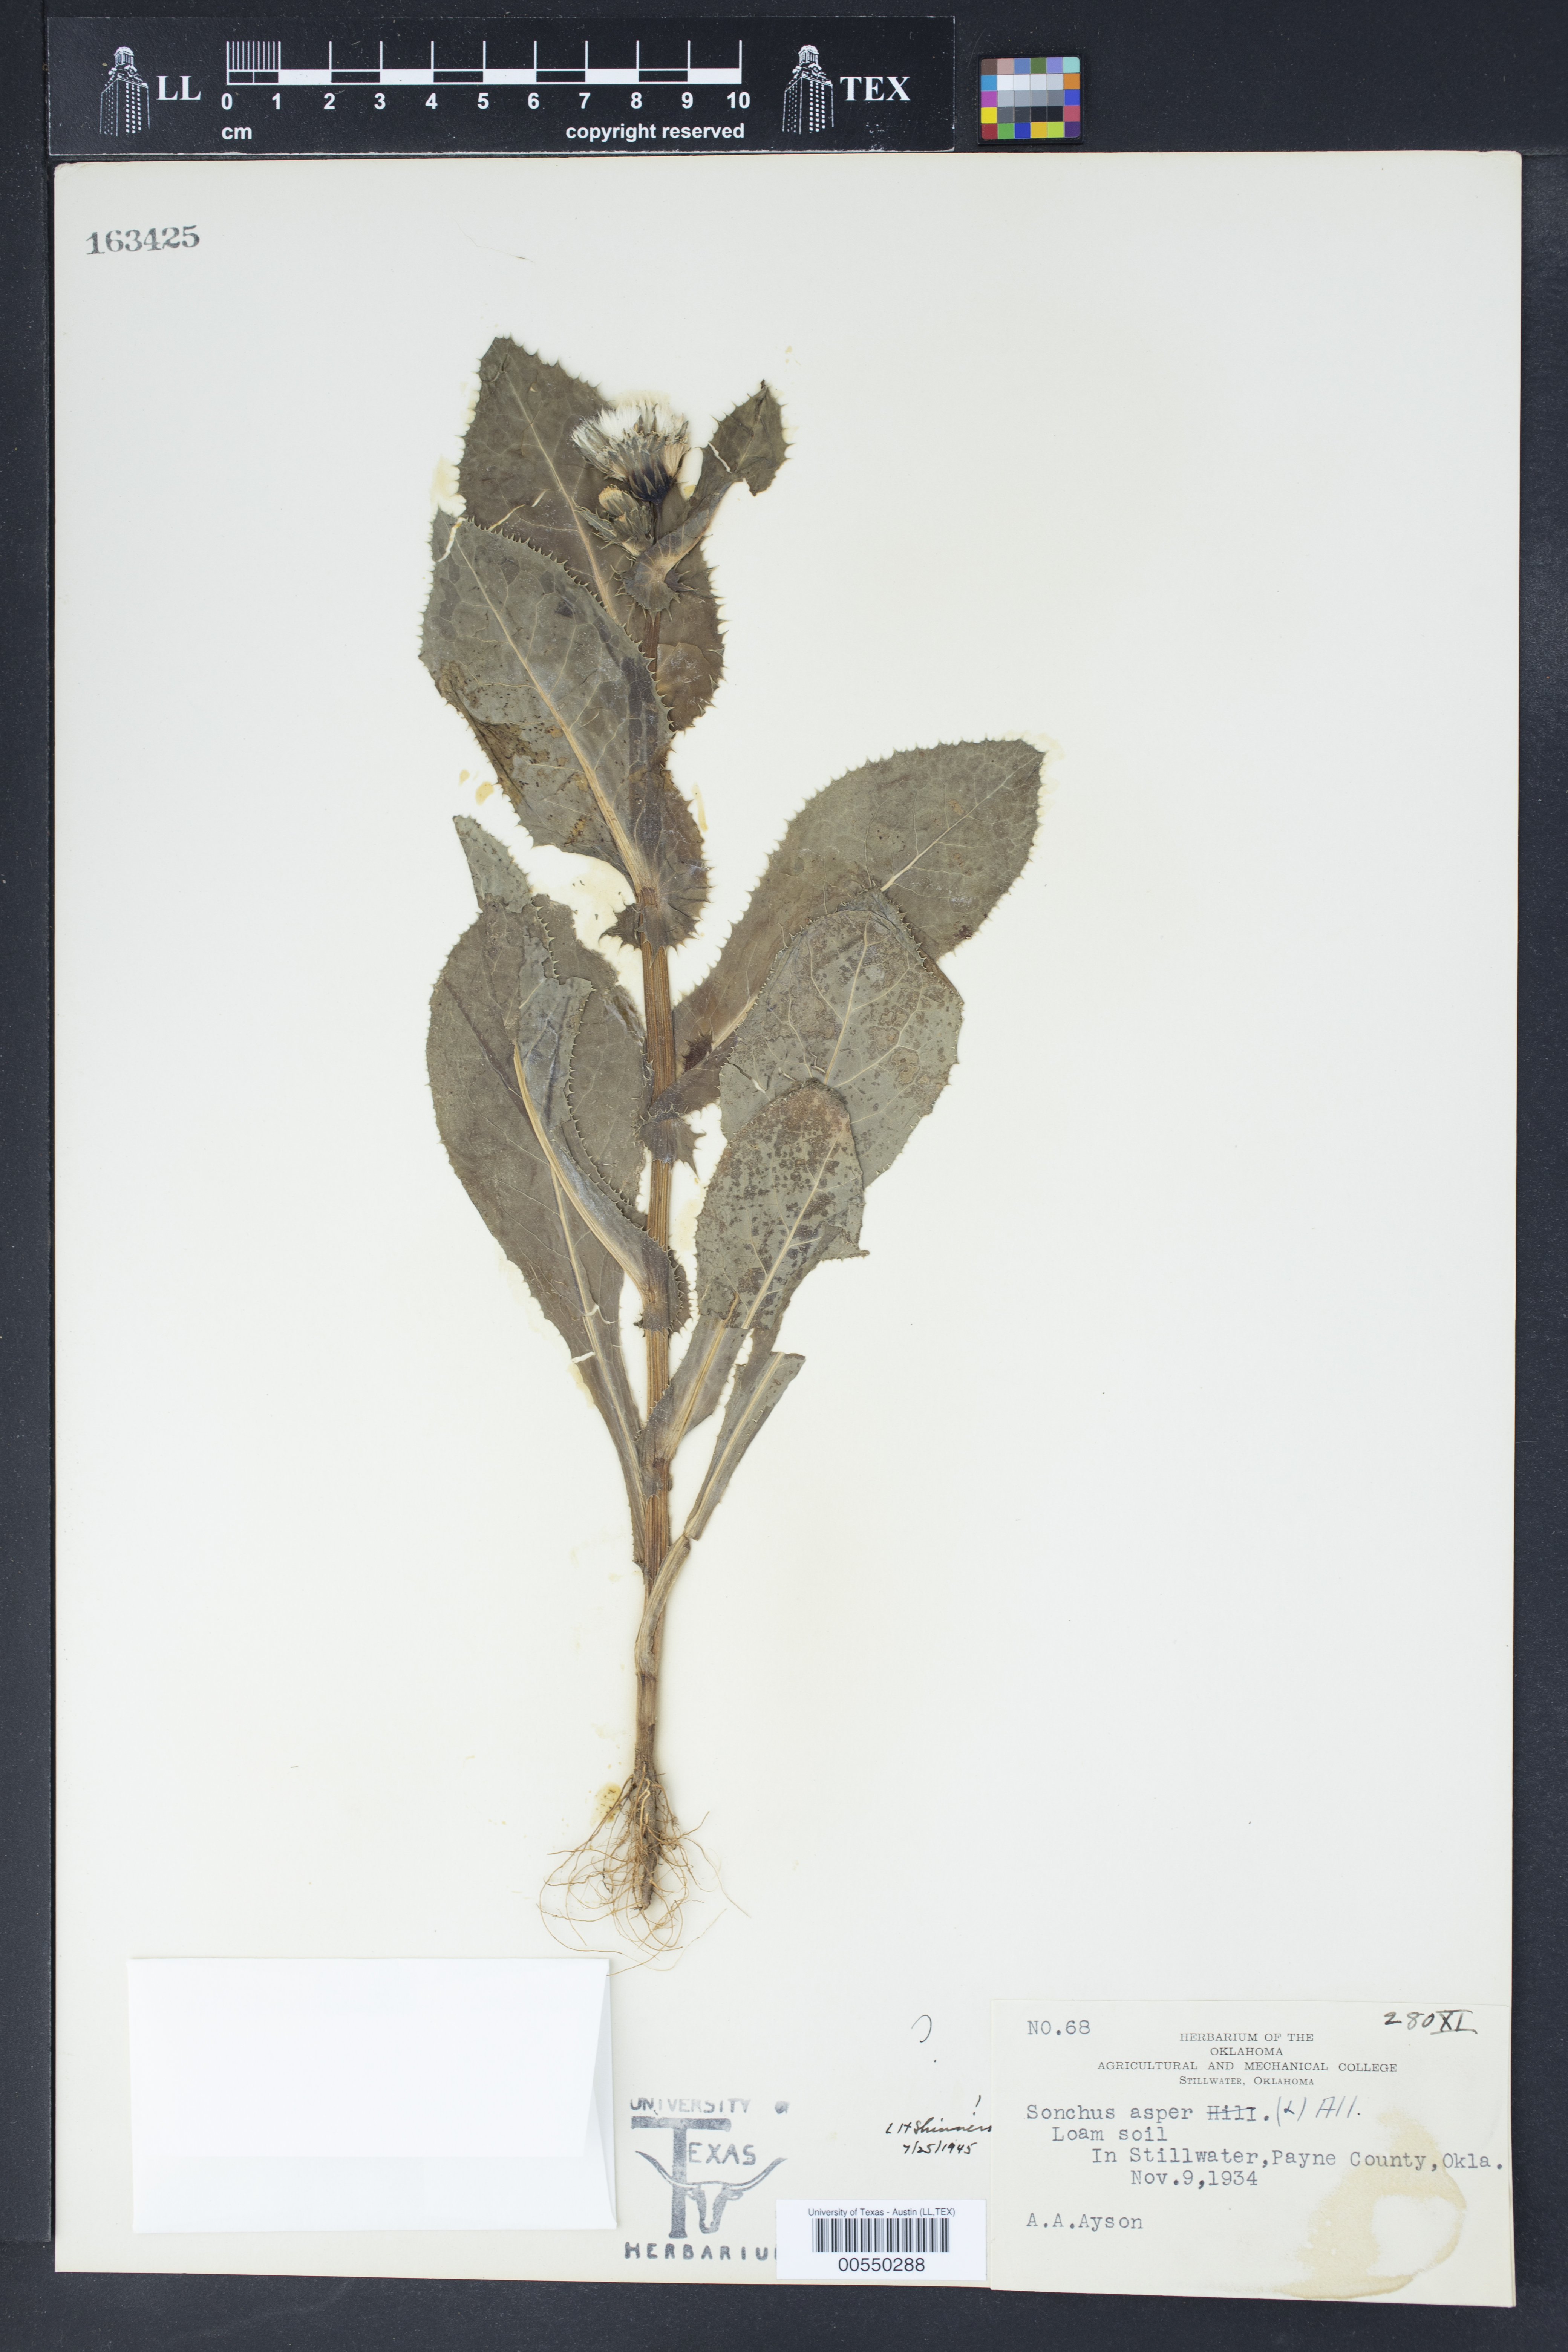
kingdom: Plantae
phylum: Tracheophyta
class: Magnoliopsida
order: Asterales
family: Asteraceae
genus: Sonchus
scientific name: Sonchus asper
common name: Prickly sow-thistle
